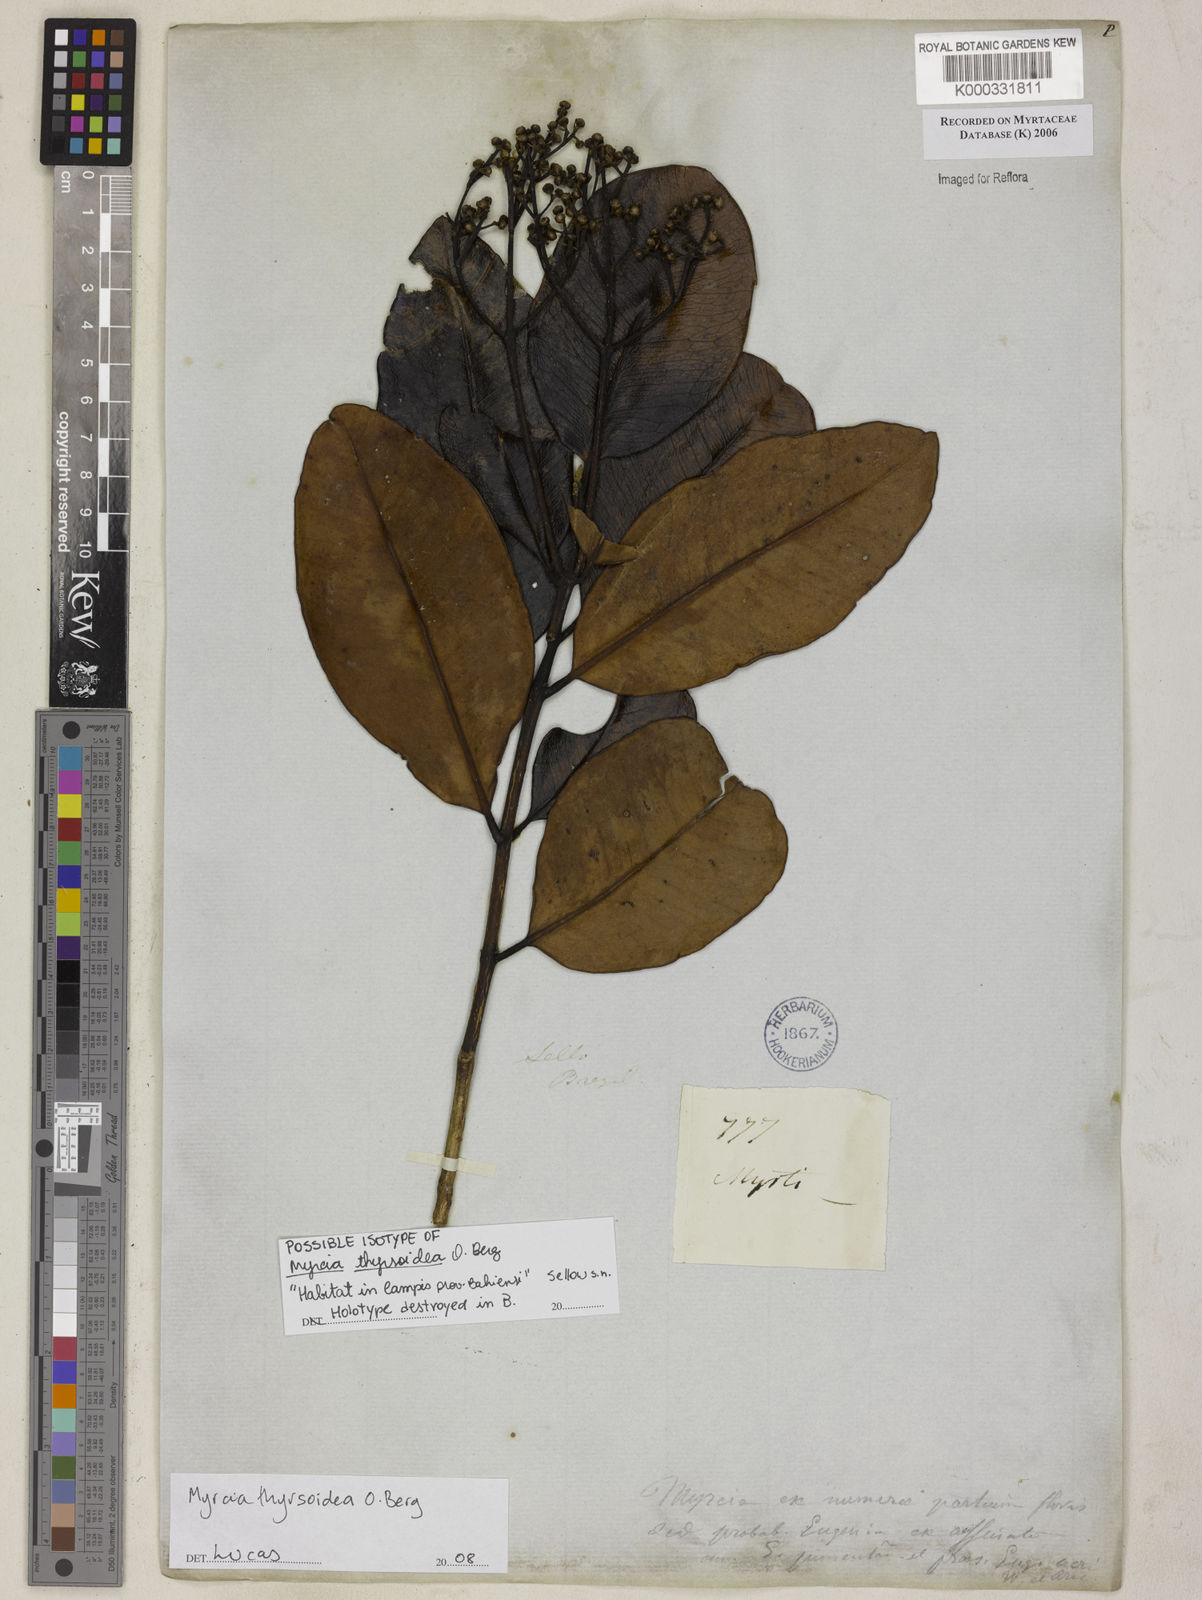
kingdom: Plantae
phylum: Tracheophyta
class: Magnoliopsida
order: Myrtales
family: Myrtaceae
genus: Myrcia
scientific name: Myrcia
